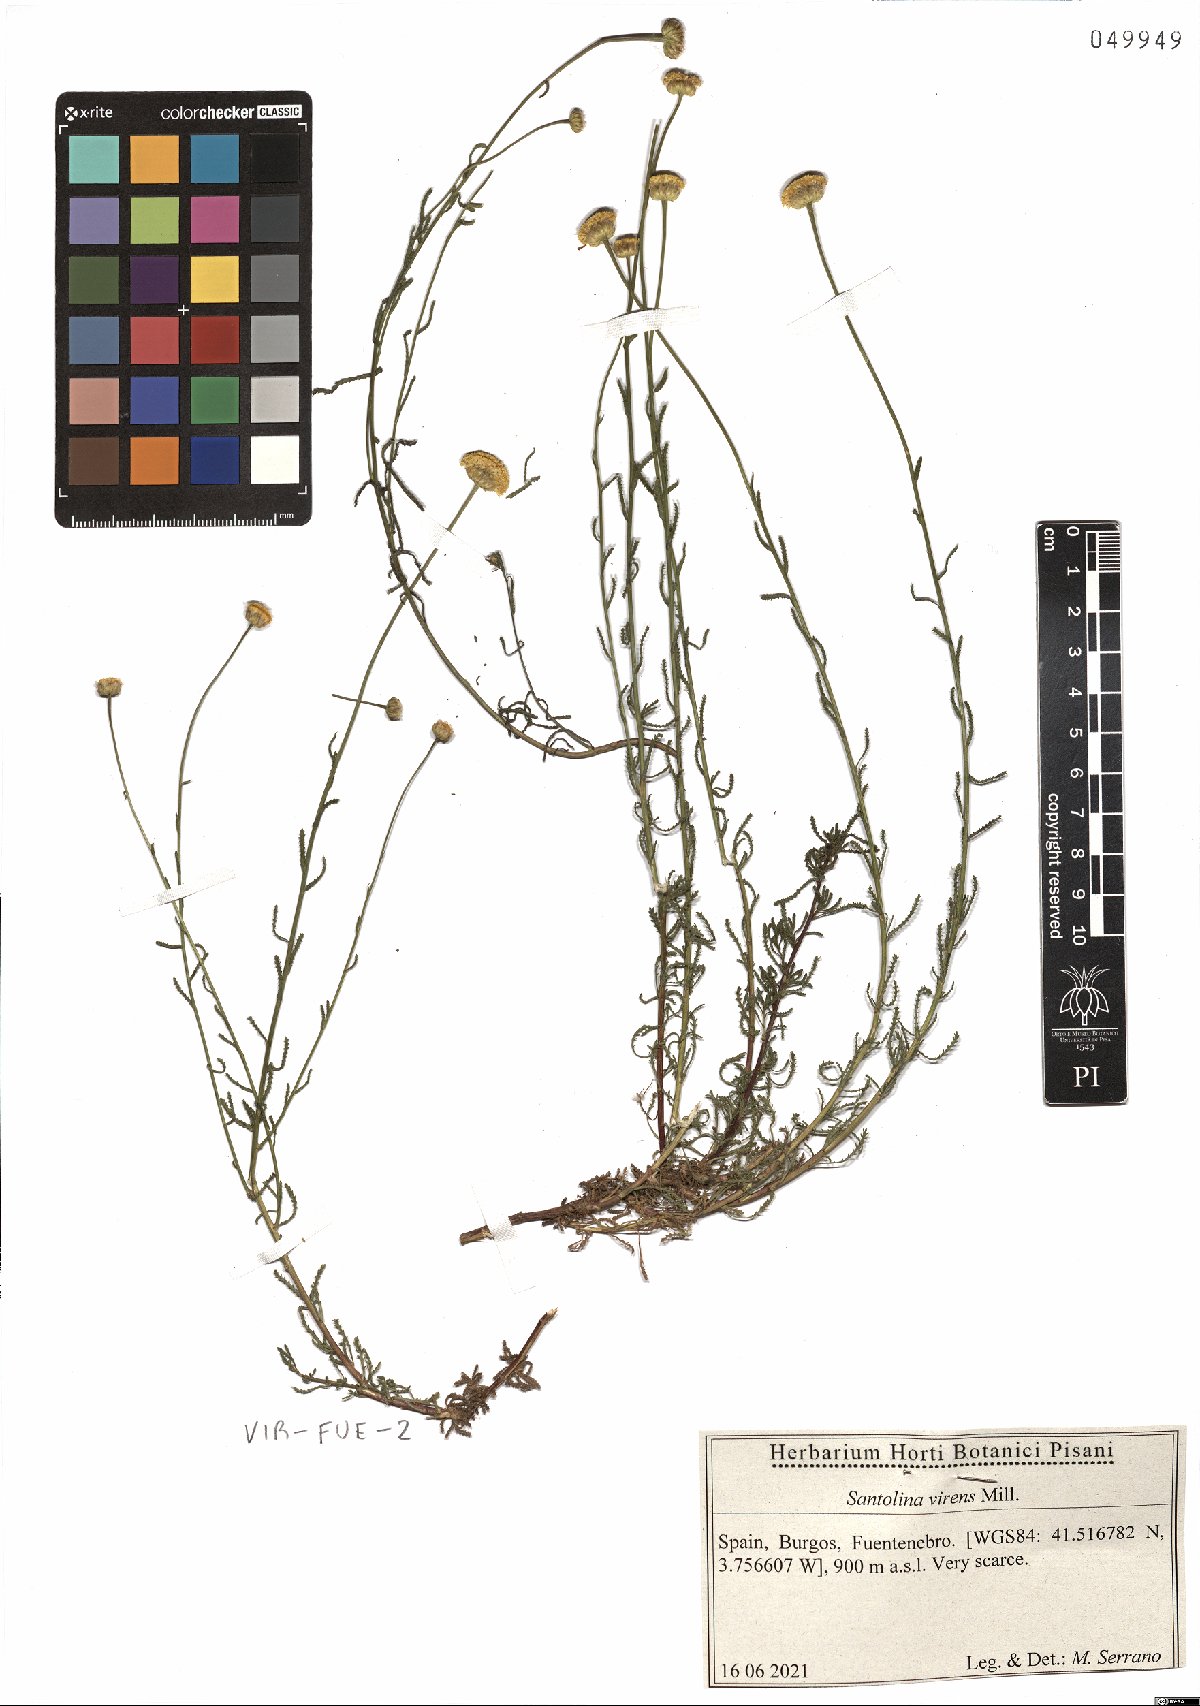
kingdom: Plantae
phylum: Tracheophyta
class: Magnoliopsida
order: Asterales
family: Asteraceae
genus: Santolina
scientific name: Santolina virens
